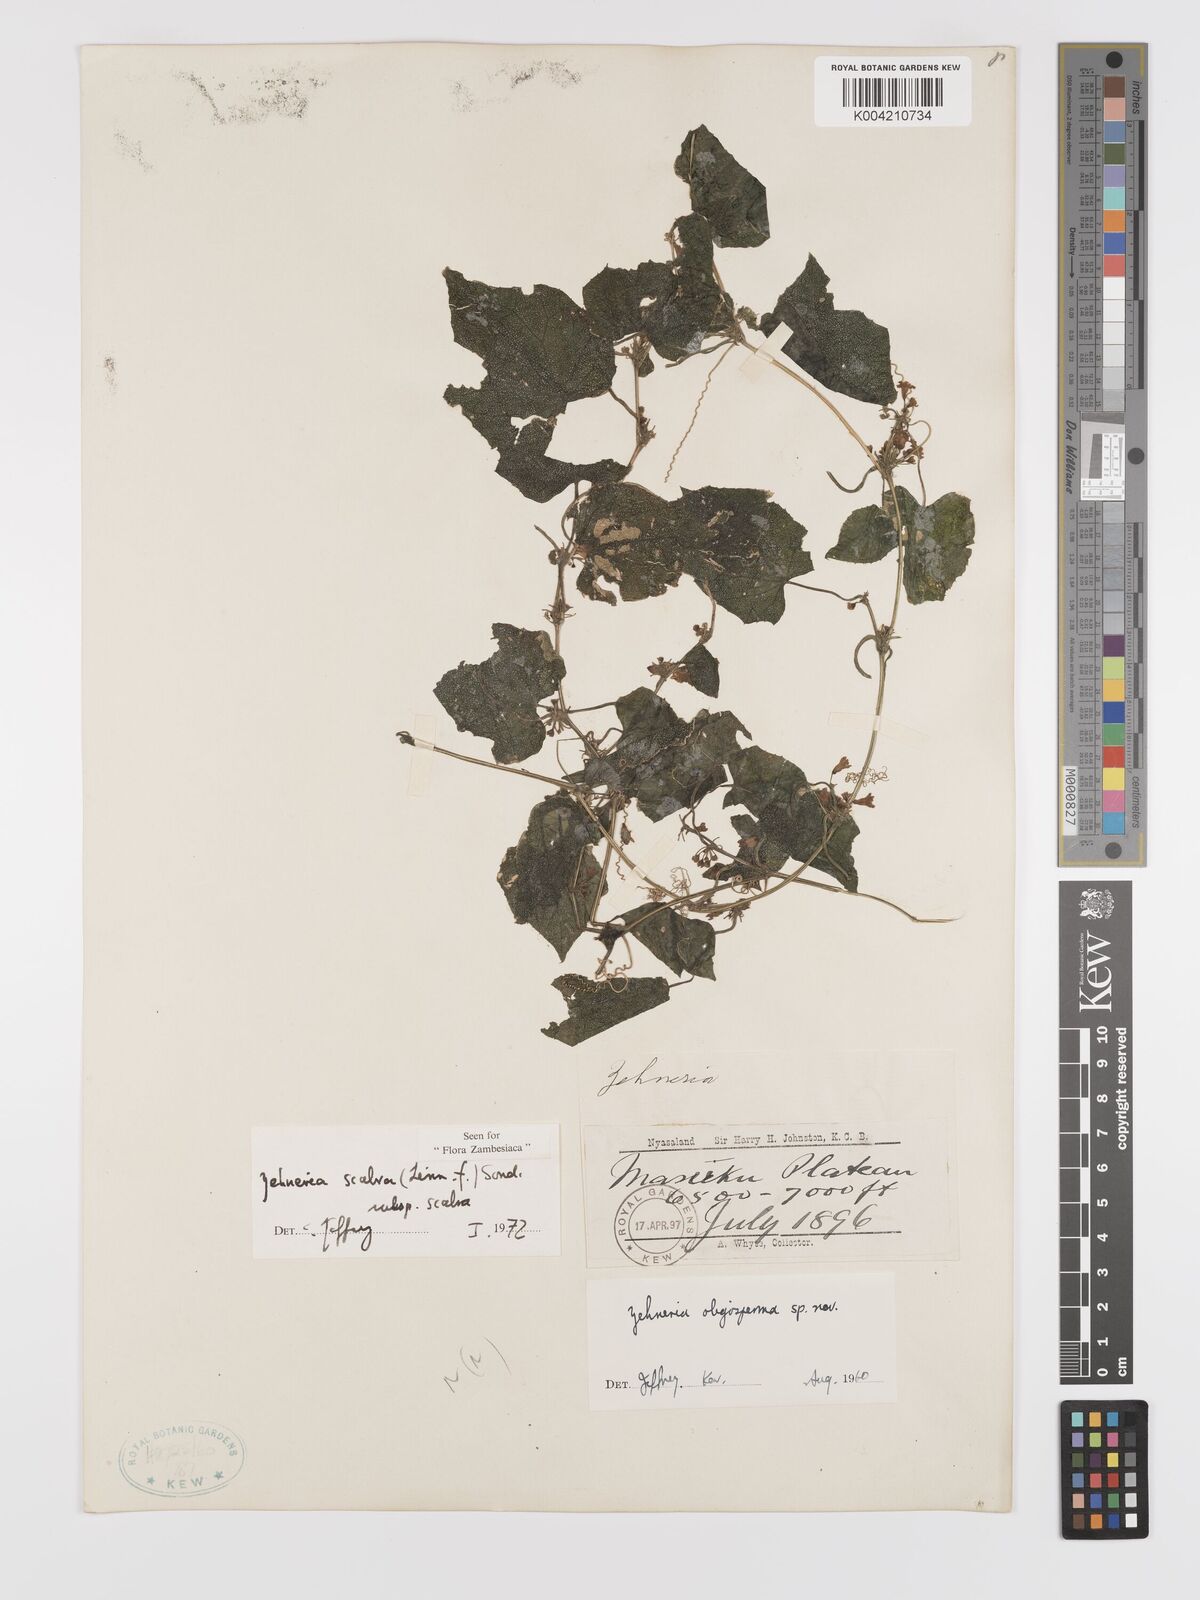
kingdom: Plantae
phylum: Tracheophyta
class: Magnoliopsida
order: Cucurbitales
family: Cucurbitaceae
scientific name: Cucurbitaceae
